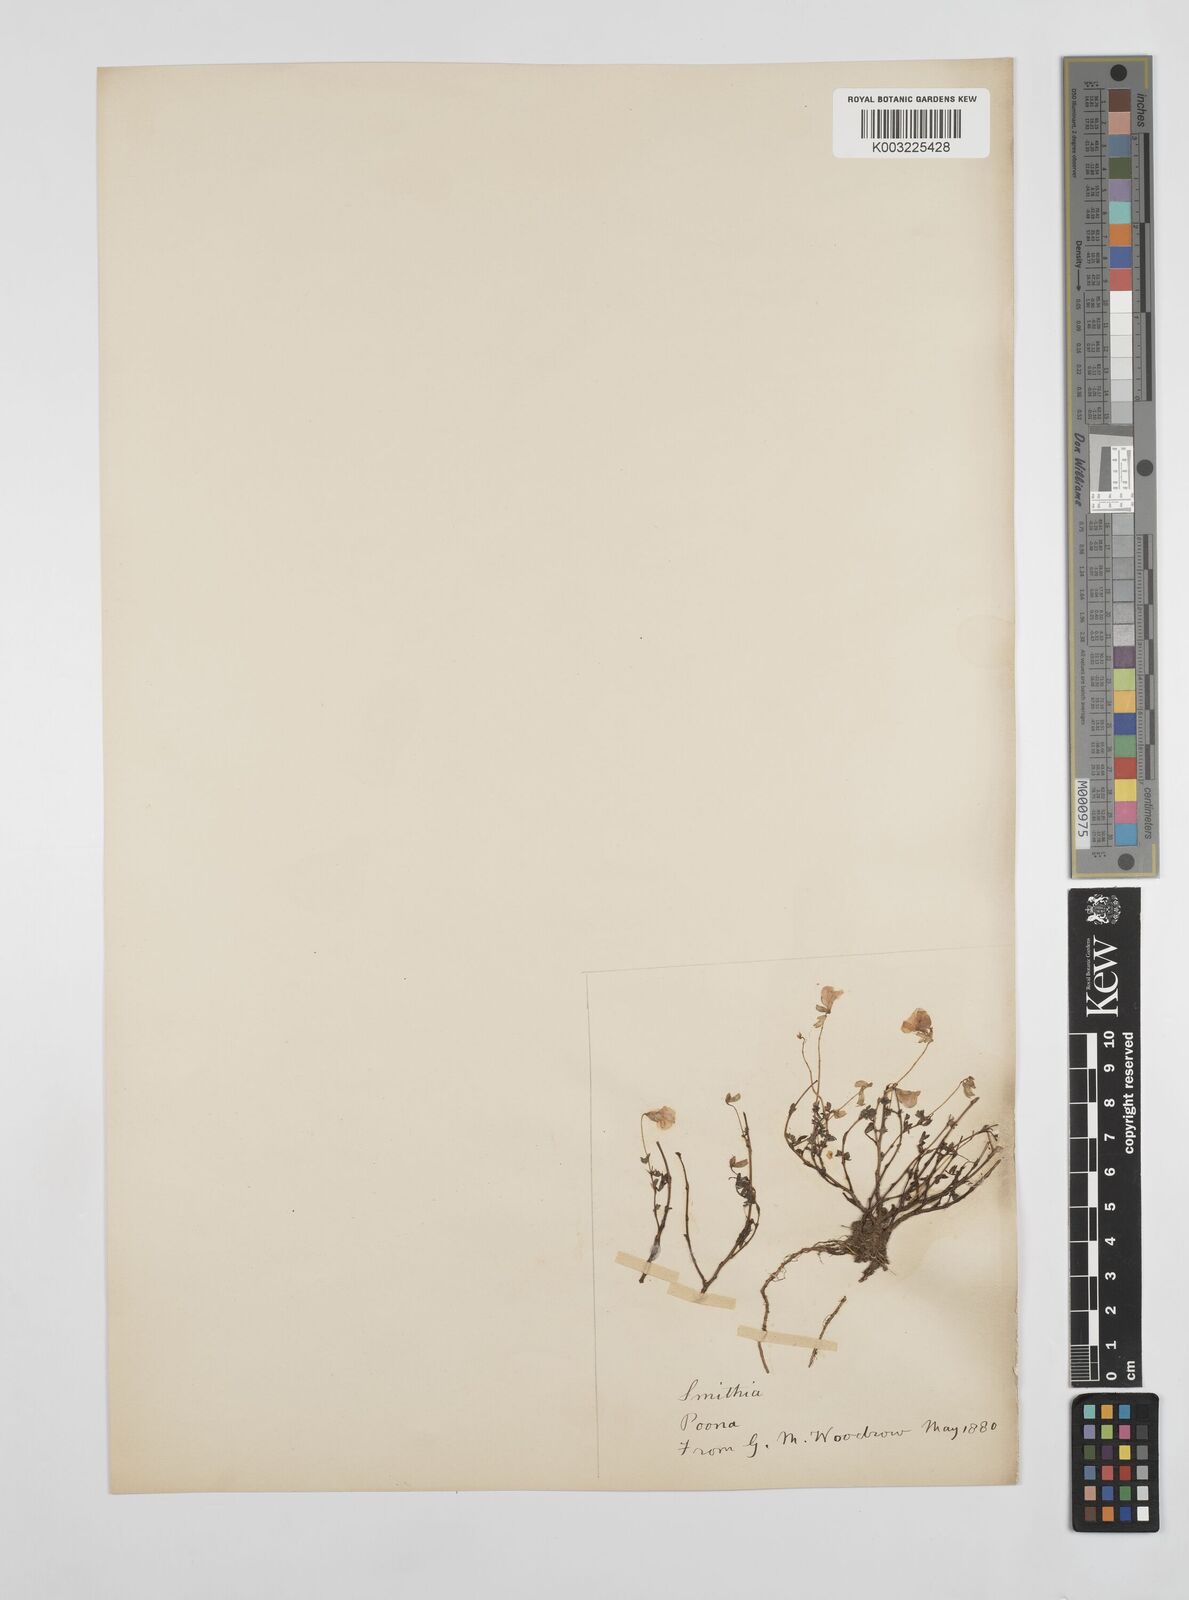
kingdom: Plantae
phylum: Tracheophyta
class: Magnoliopsida
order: Fabales
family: Fabaceae
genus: Smithia
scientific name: Smithia bigemina
